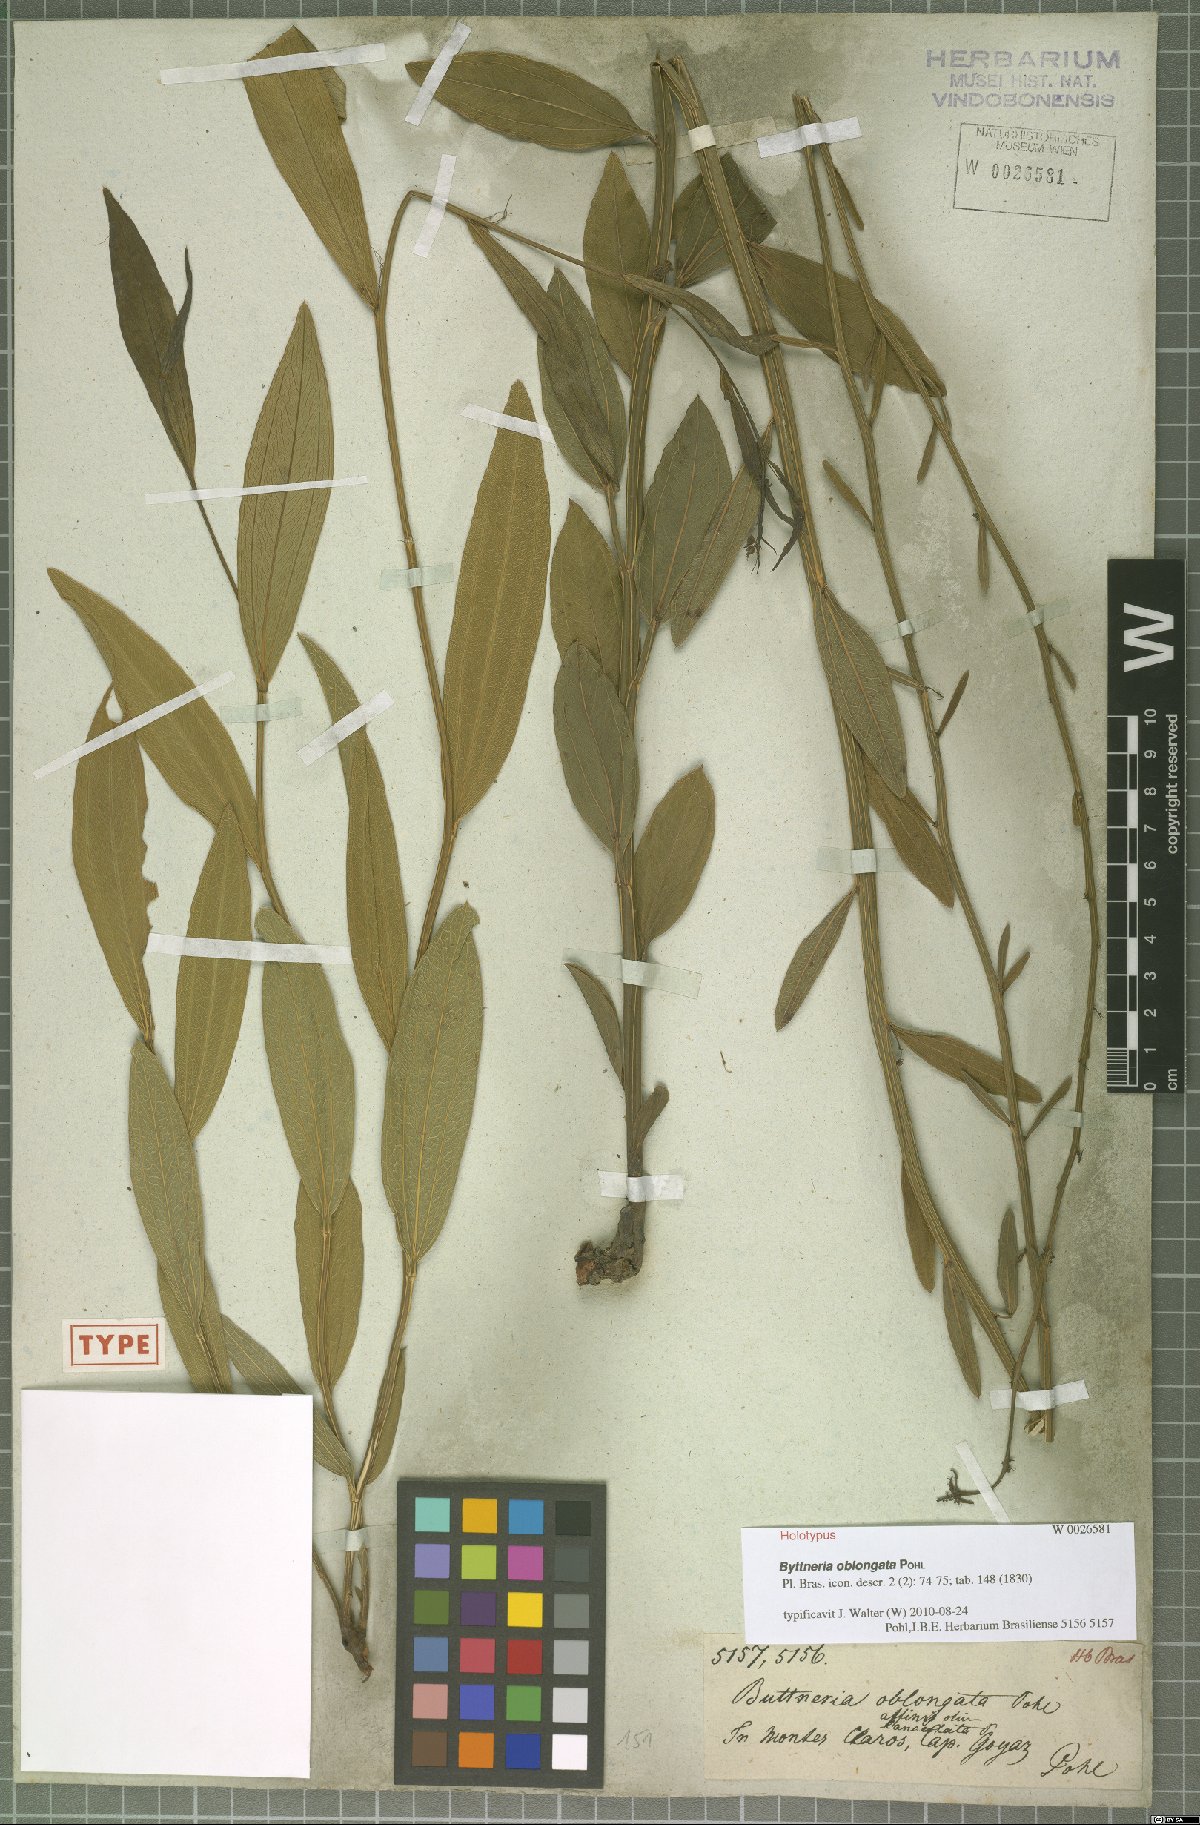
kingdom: Plantae
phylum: Tracheophyta
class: Magnoliopsida
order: Malvales
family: Malvaceae
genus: Byttneria
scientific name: Byttneria oblongata
